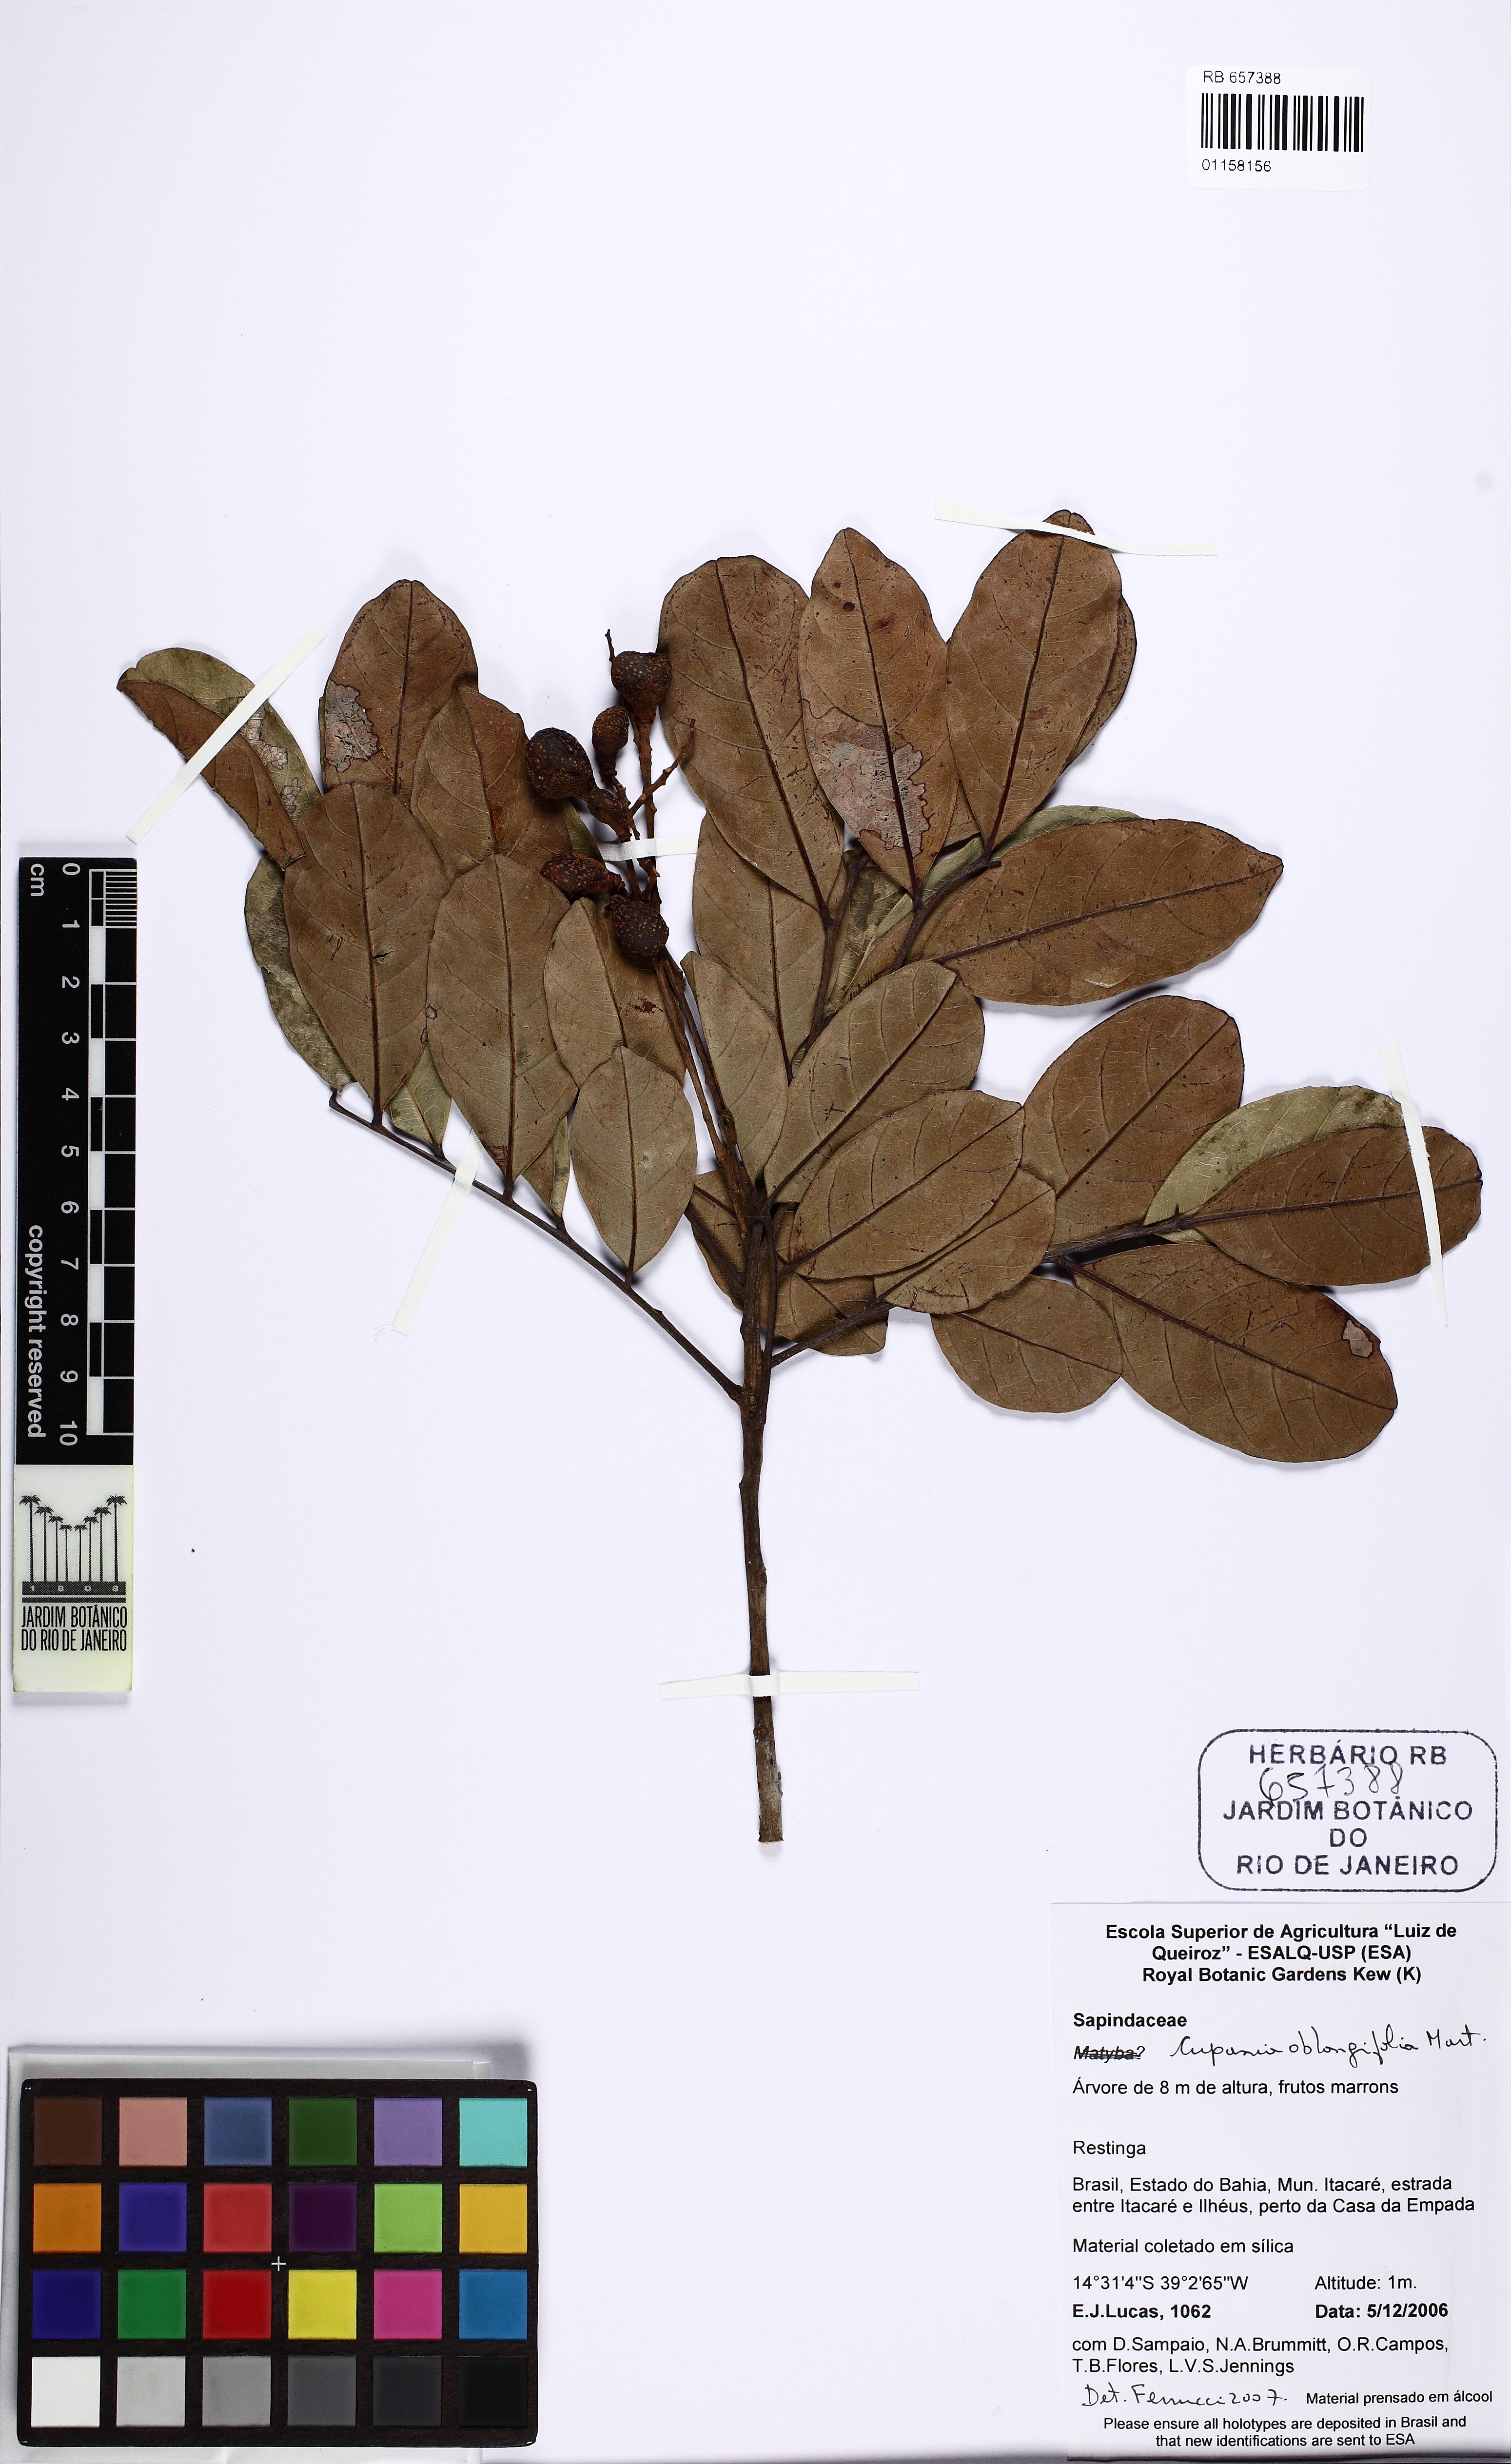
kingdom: Plantae
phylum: Tracheophyta
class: Magnoliopsida
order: Sapindales
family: Sapindaceae
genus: Cupania
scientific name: Cupania oblongifolia
